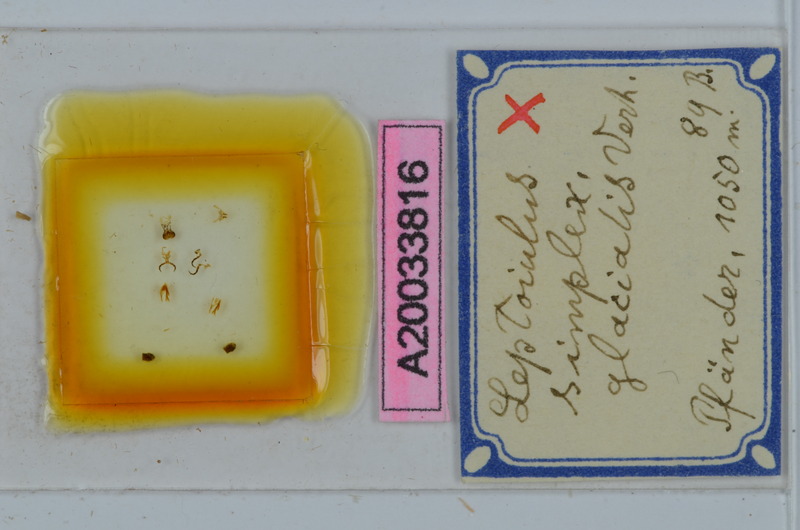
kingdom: Animalia
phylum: Arthropoda
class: Diplopoda
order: Julida
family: Julidae
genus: Leptoiulus
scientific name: Leptoiulus simplex
